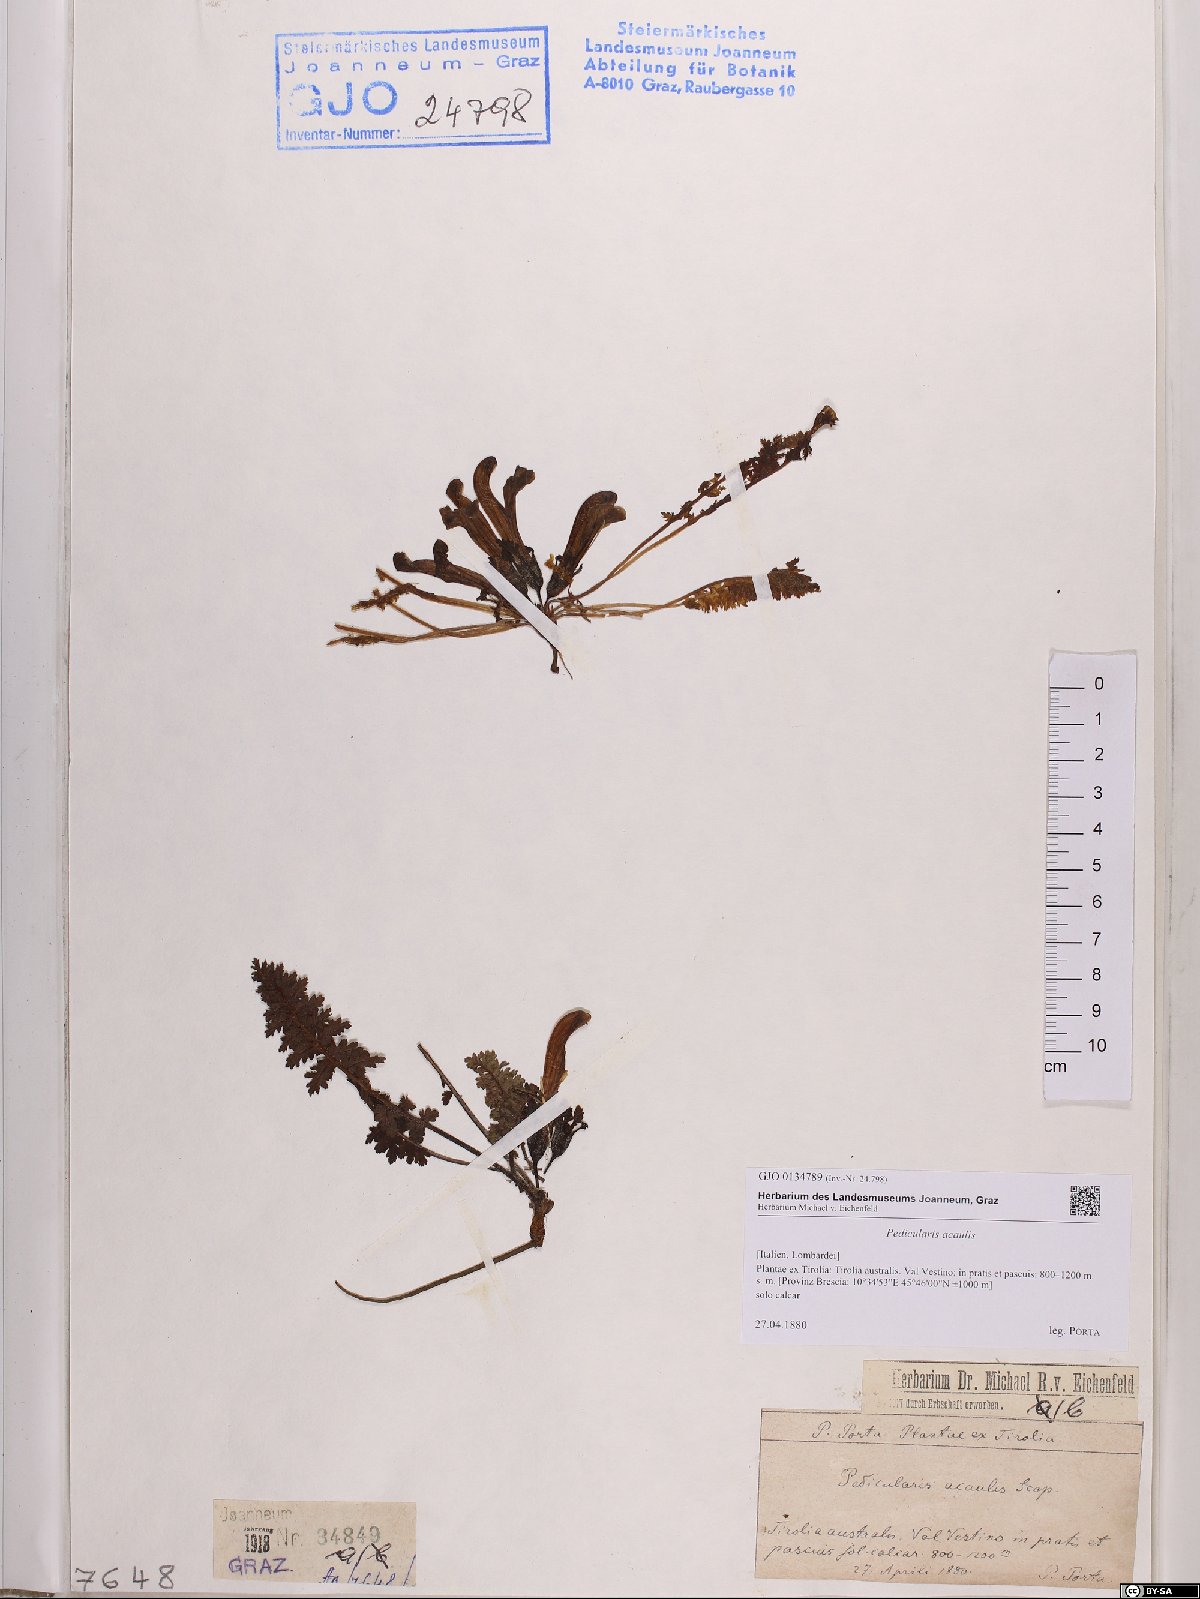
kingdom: Plantae
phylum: Tracheophyta
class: Magnoliopsida
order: Lamiales
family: Orobanchaceae
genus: Pedicularis
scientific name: Pedicularis acaulis
